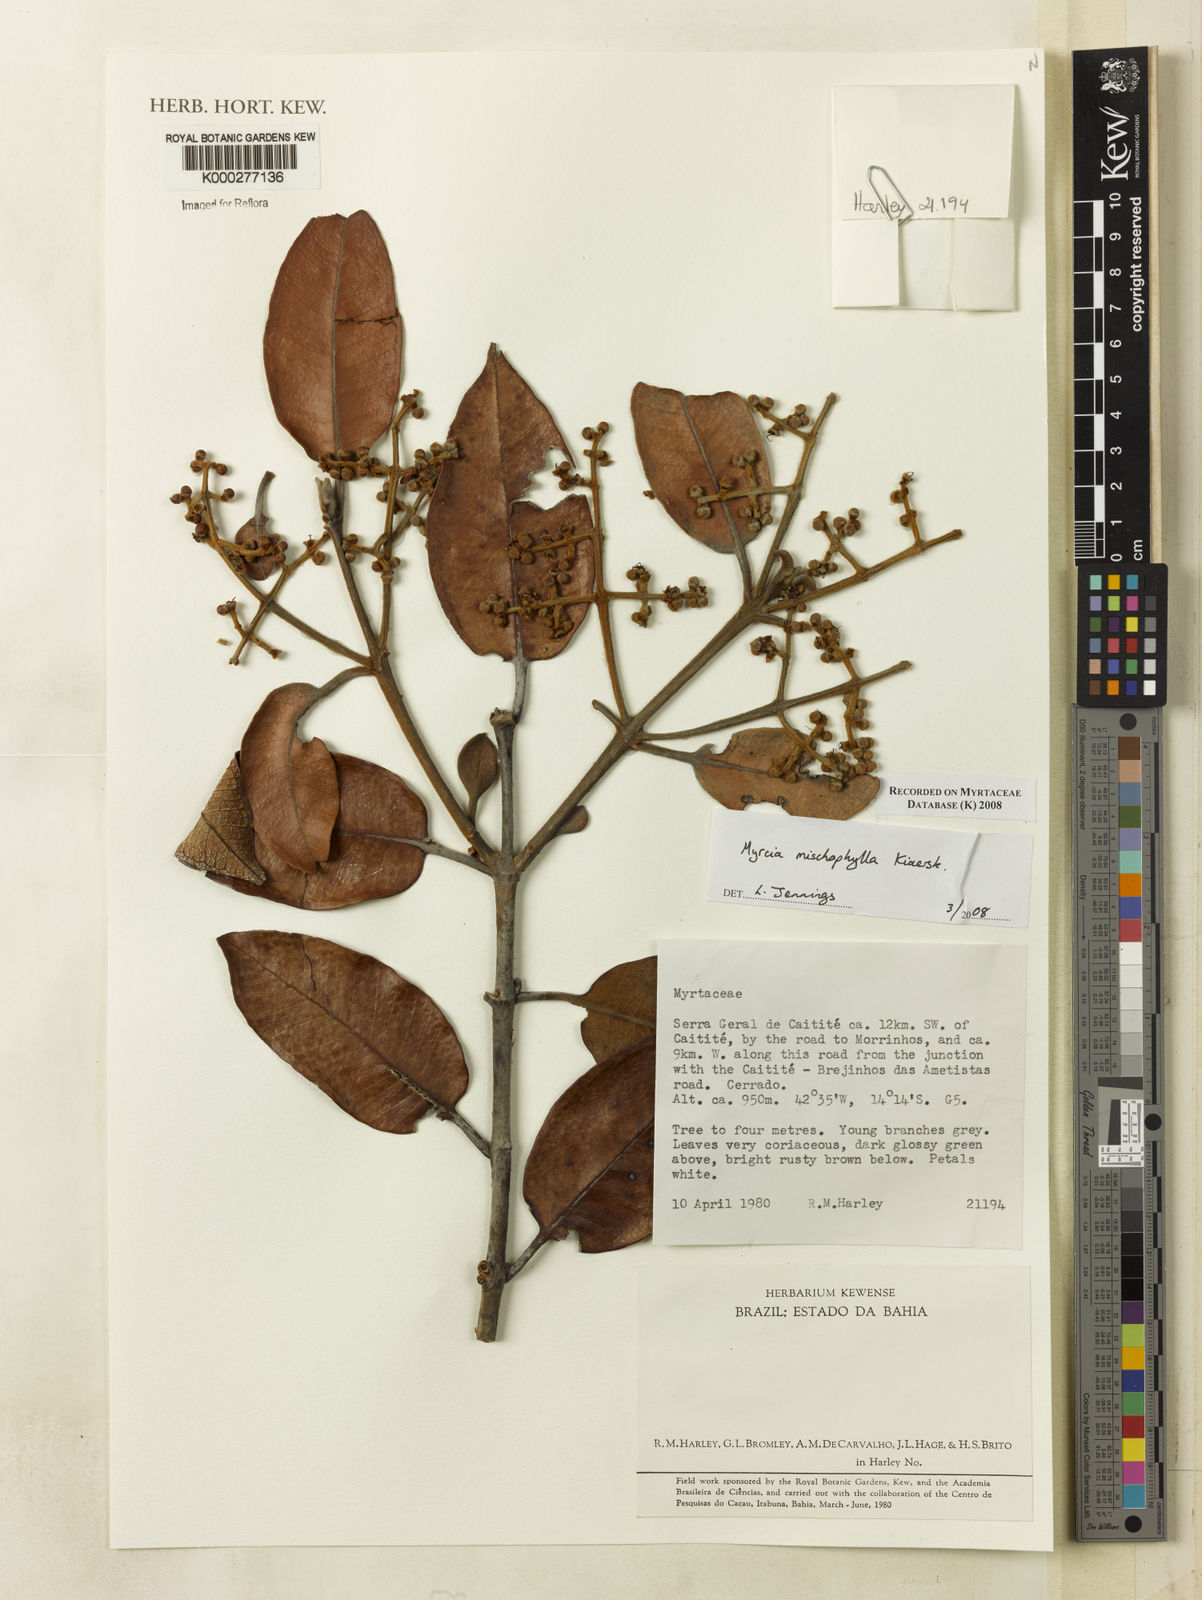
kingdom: Plantae
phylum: Tracheophyta
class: Magnoliopsida
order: Myrtales
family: Myrtaceae
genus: Myrcia
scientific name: Myrcia mischophylla
